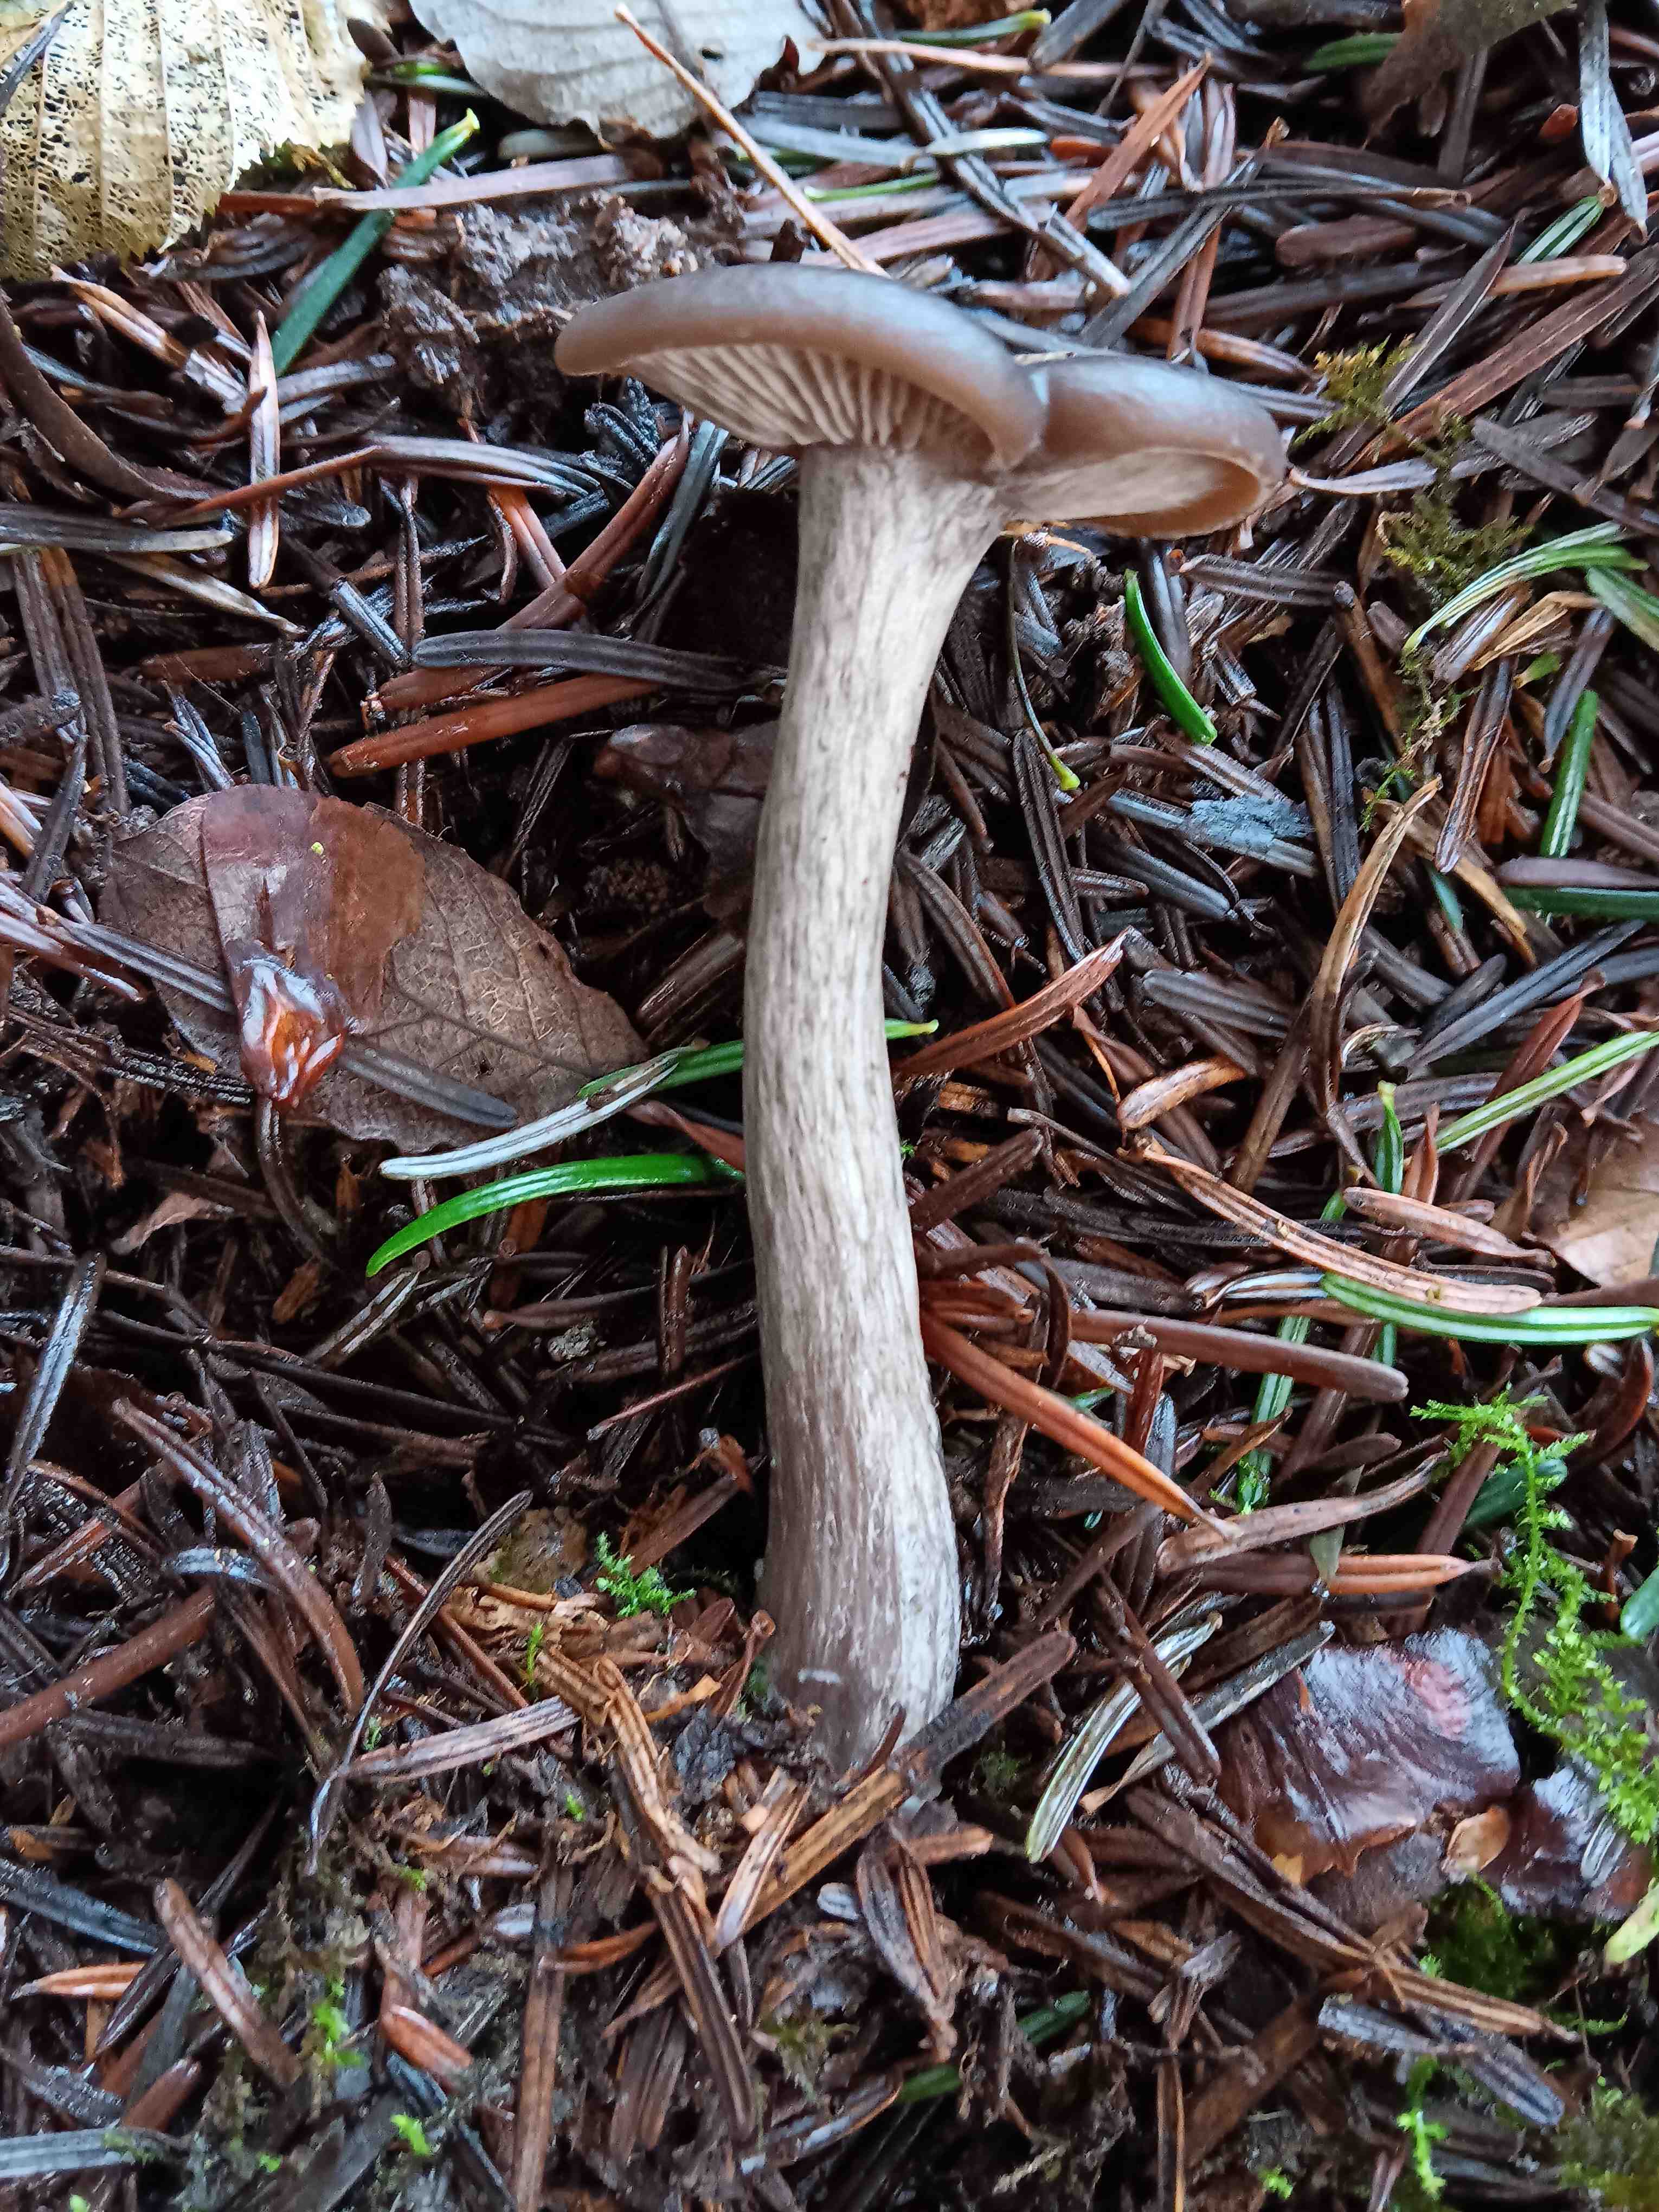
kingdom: Fungi
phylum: Basidiomycota
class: Agaricomycetes
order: Agaricales
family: Pseudoclitocybaceae
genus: Pseudoclitocybe
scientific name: Pseudoclitocybe cyathiformis
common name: almindelig bægertragthat
